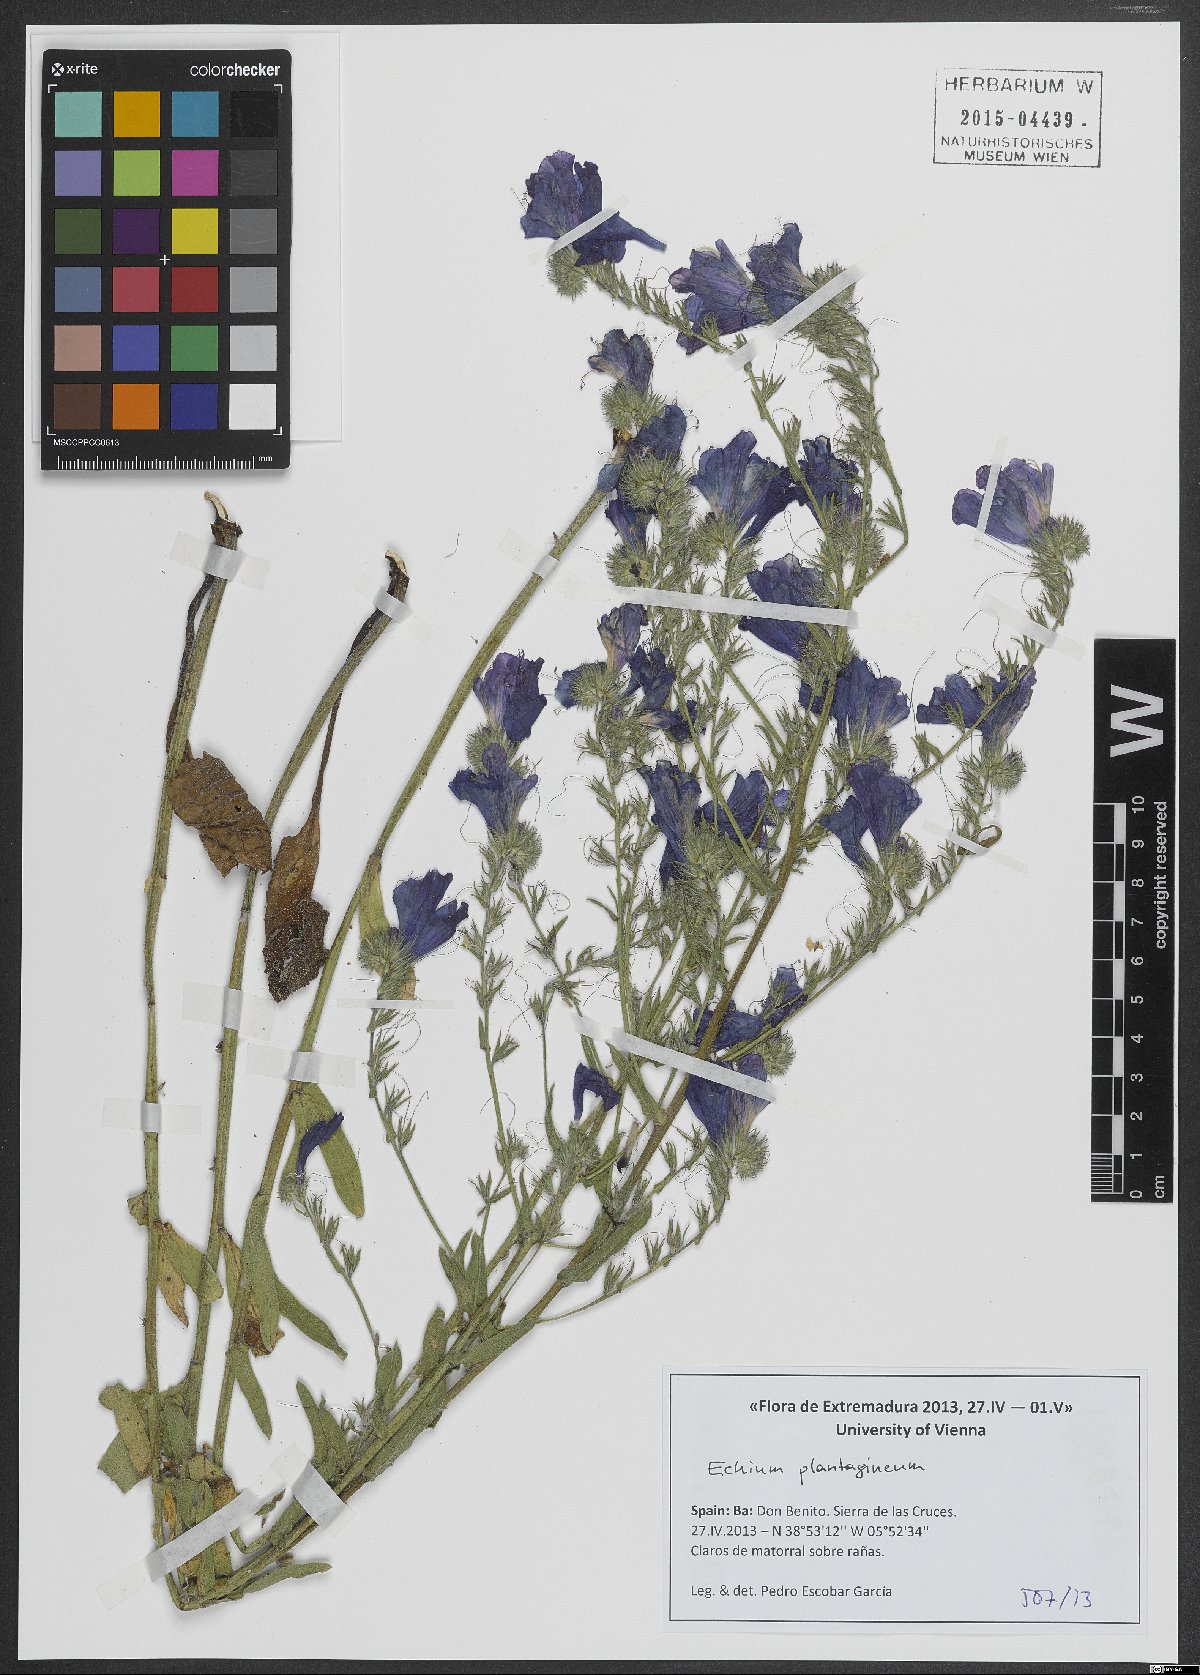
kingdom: Plantae
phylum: Tracheophyta
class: Magnoliopsida
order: Boraginales
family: Boraginaceae
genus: Echium
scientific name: Echium plantagineum
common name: Purple viper's-bugloss
